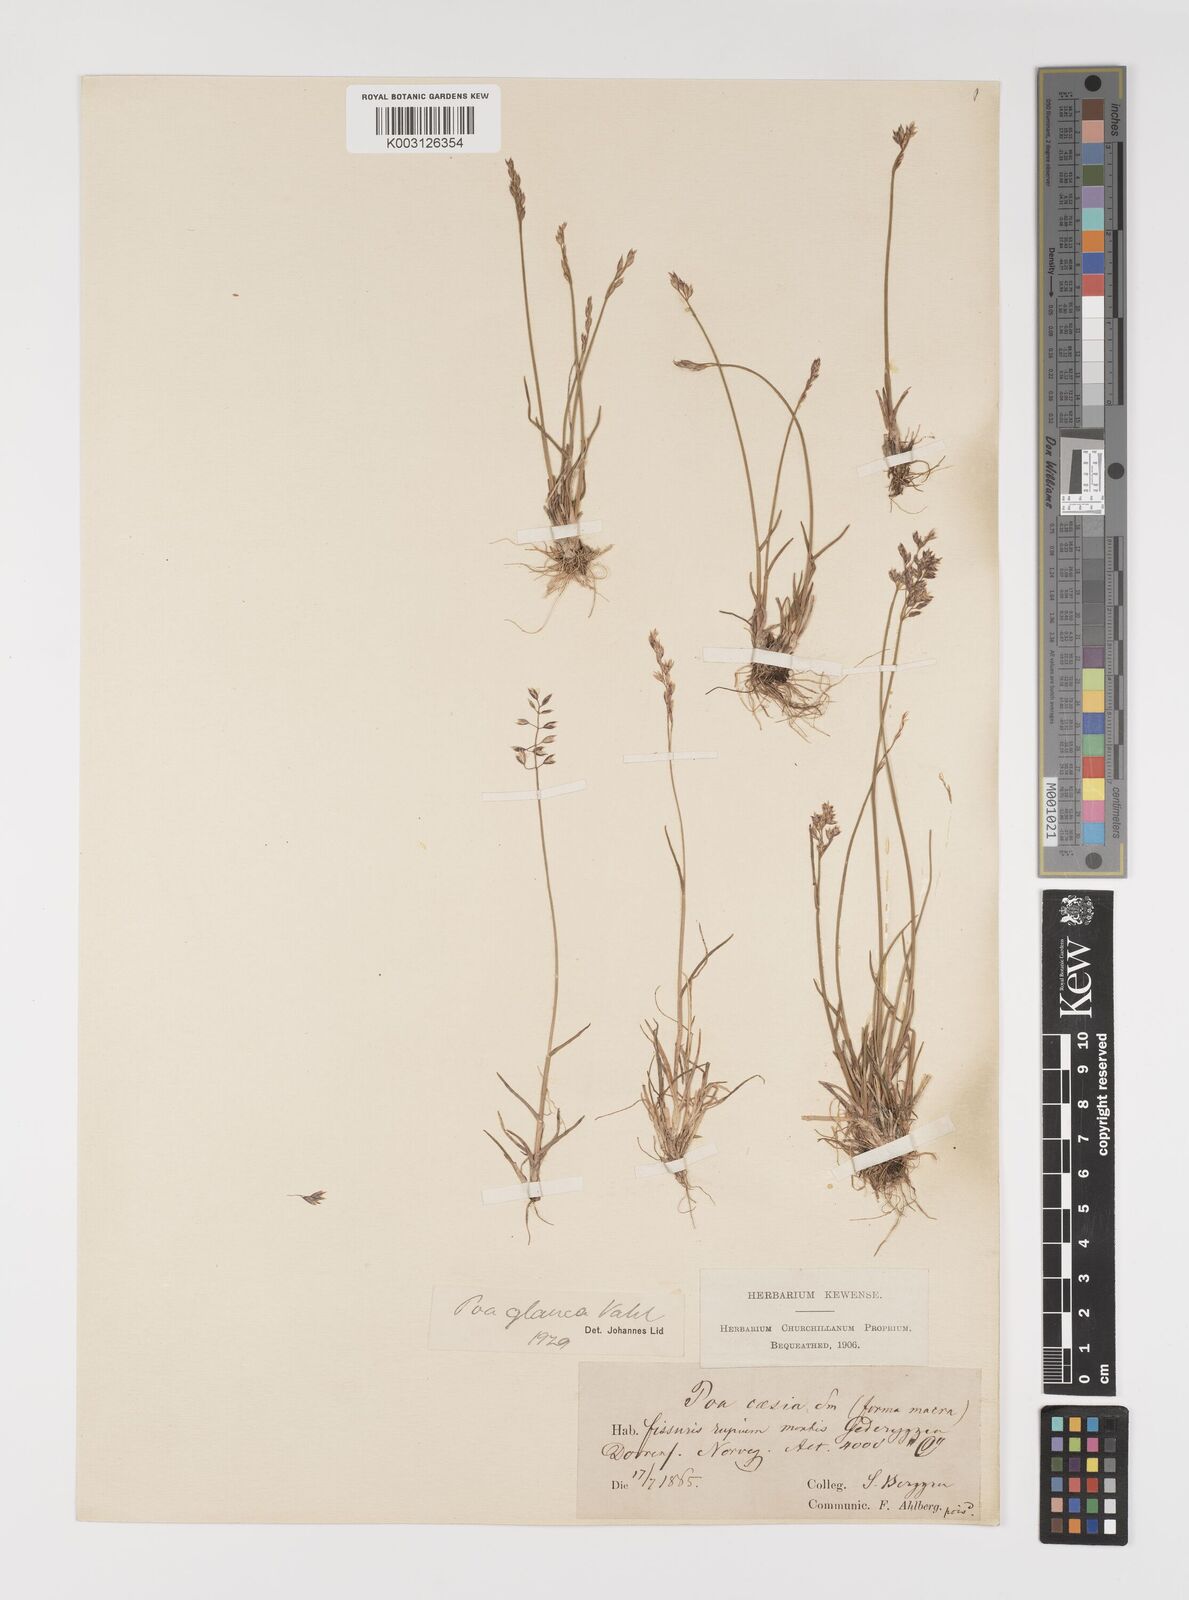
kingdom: Plantae
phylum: Tracheophyta
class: Liliopsida
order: Poales
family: Poaceae
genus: Poa
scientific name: Poa glauca
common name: Glaucous bluegrass
